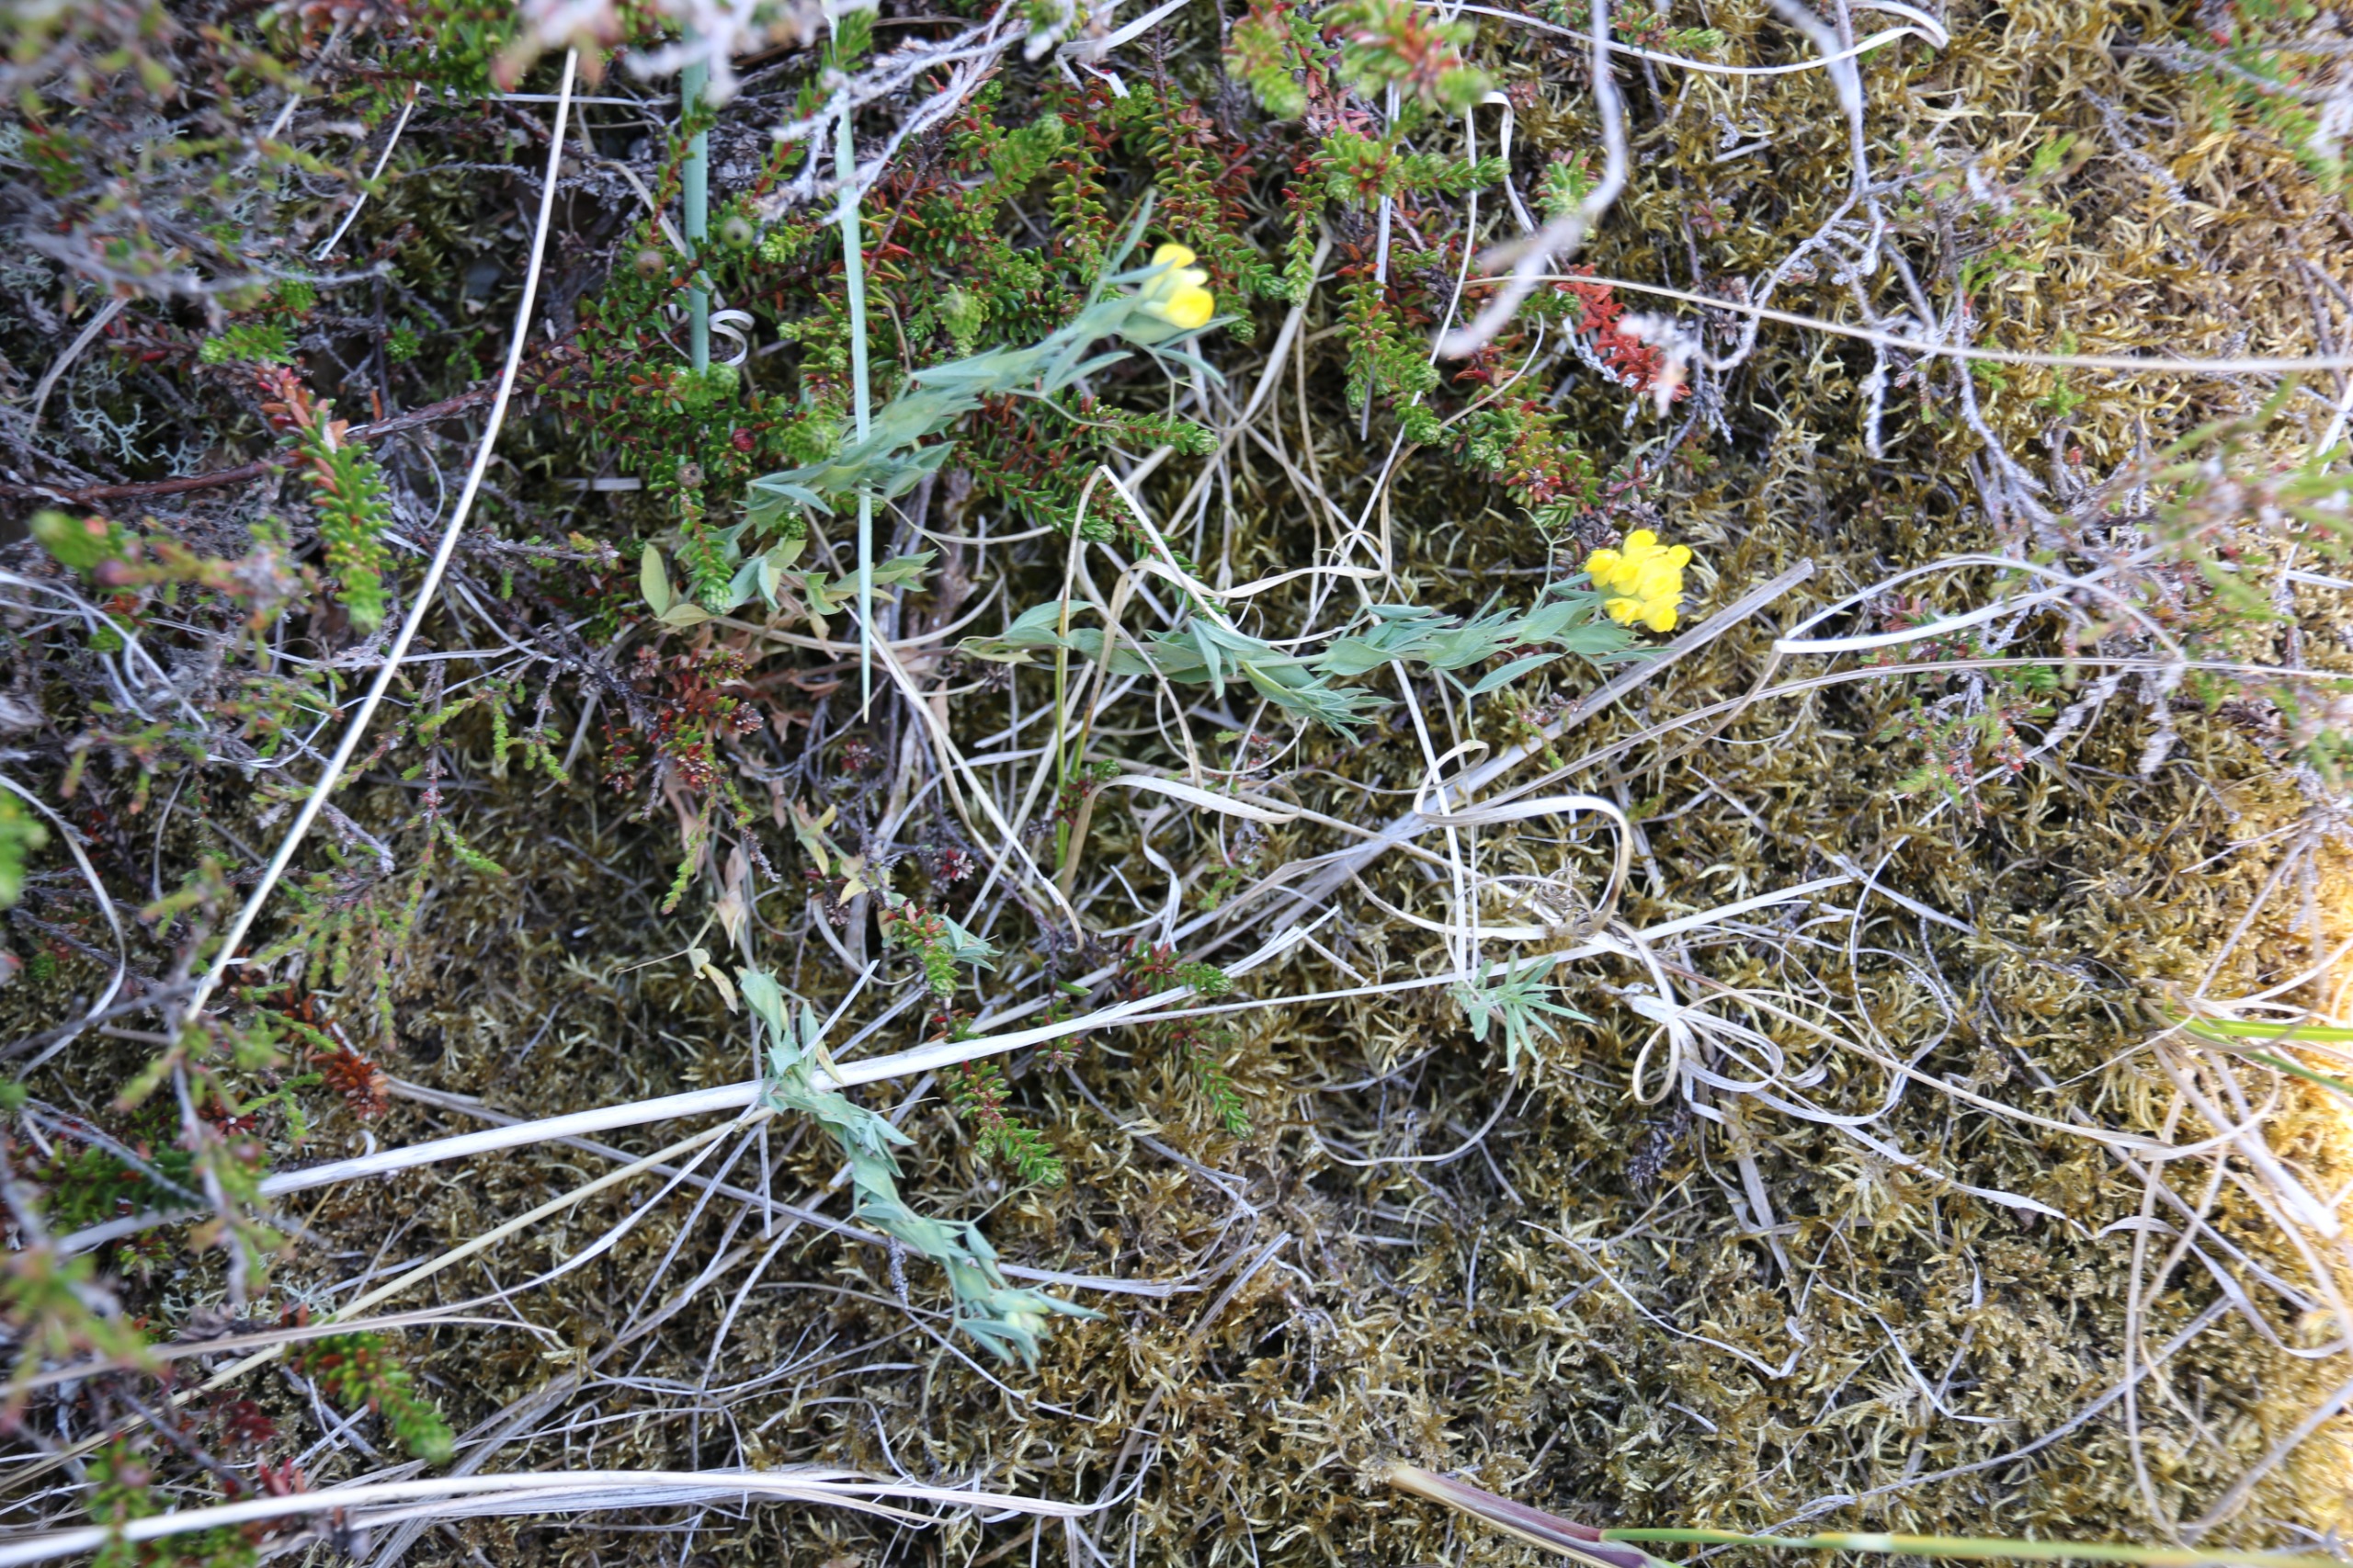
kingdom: Plantae
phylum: Tracheophyta
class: Magnoliopsida
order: Fabales
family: Fabaceae
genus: Lathyrus
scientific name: Lathyrus pratensis
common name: Gul fladbælg
